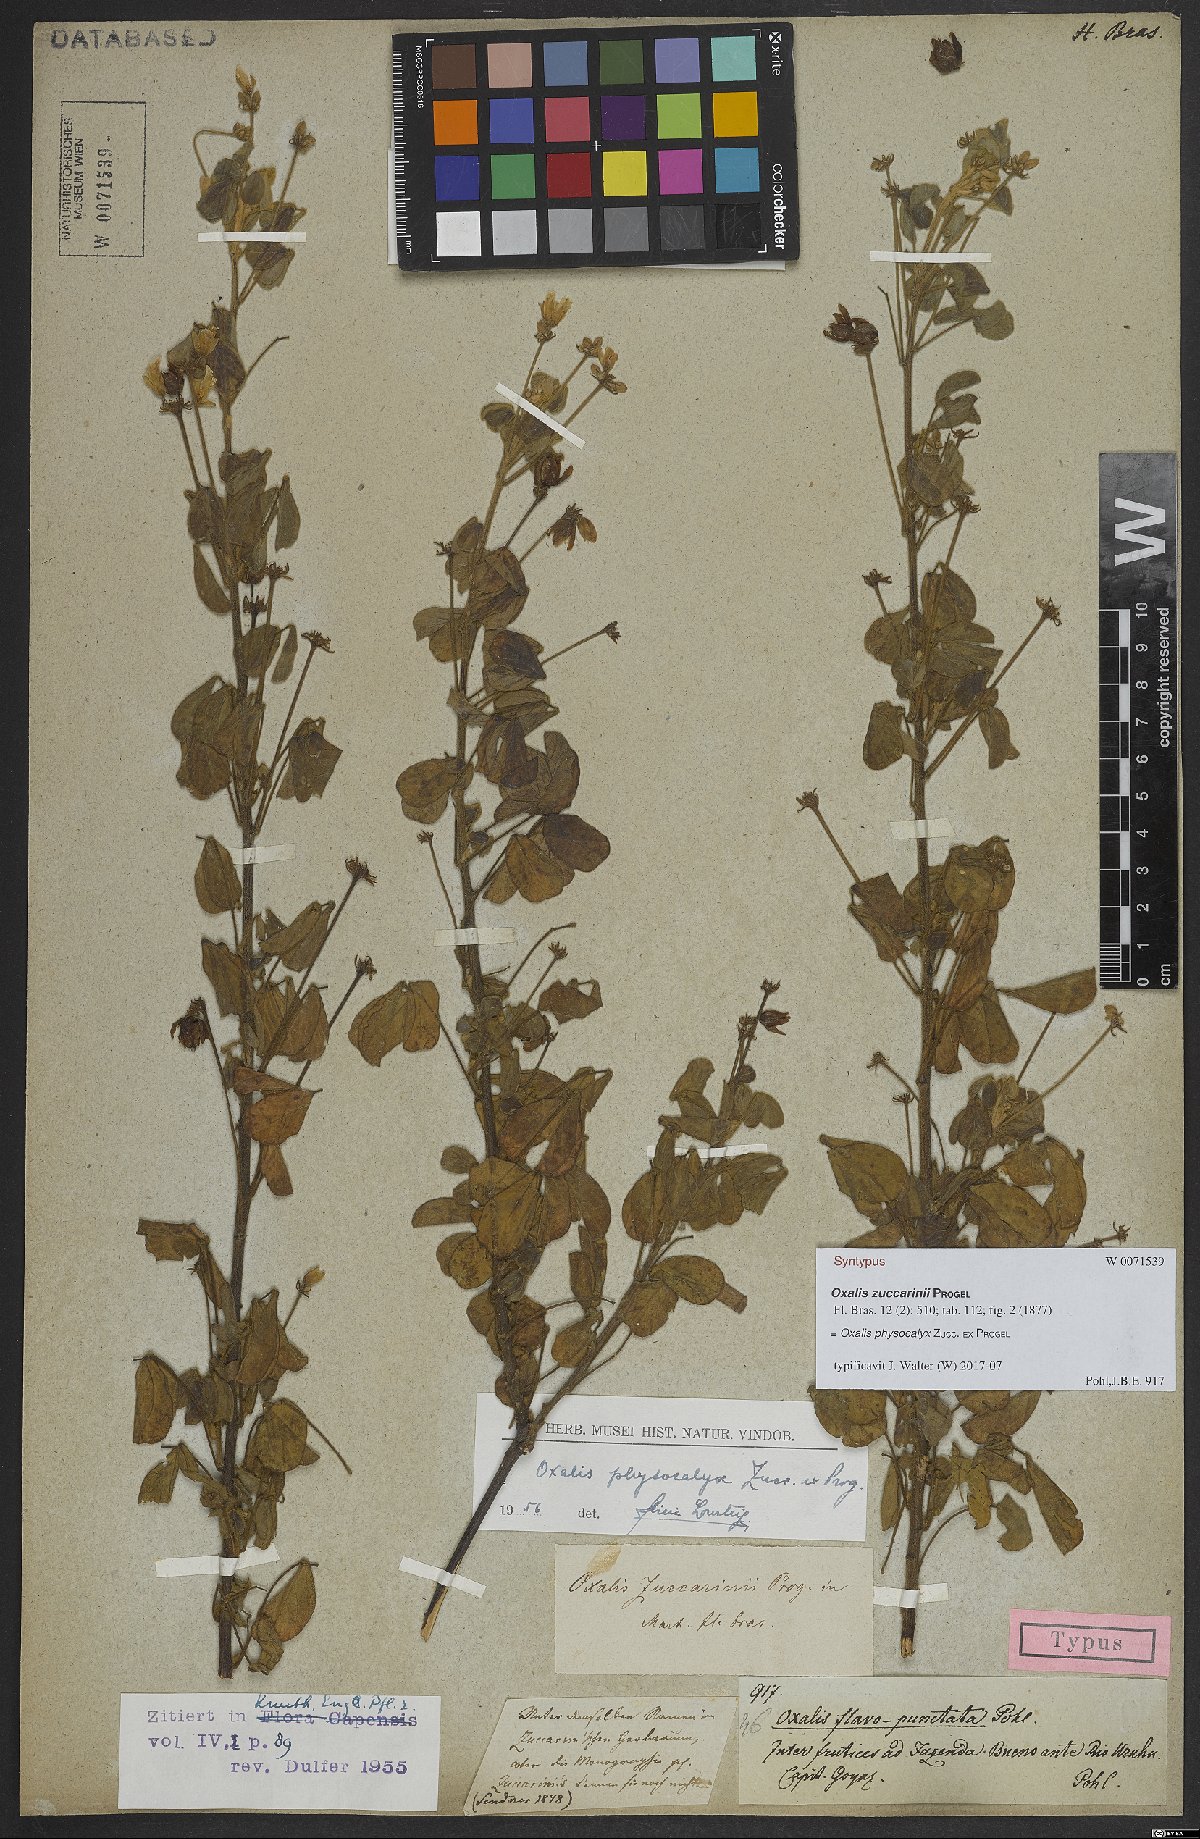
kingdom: Plantae
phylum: Tracheophyta
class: Magnoliopsida
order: Oxalidales
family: Oxalidaceae
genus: Oxalis
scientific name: Oxalis physocalyx
